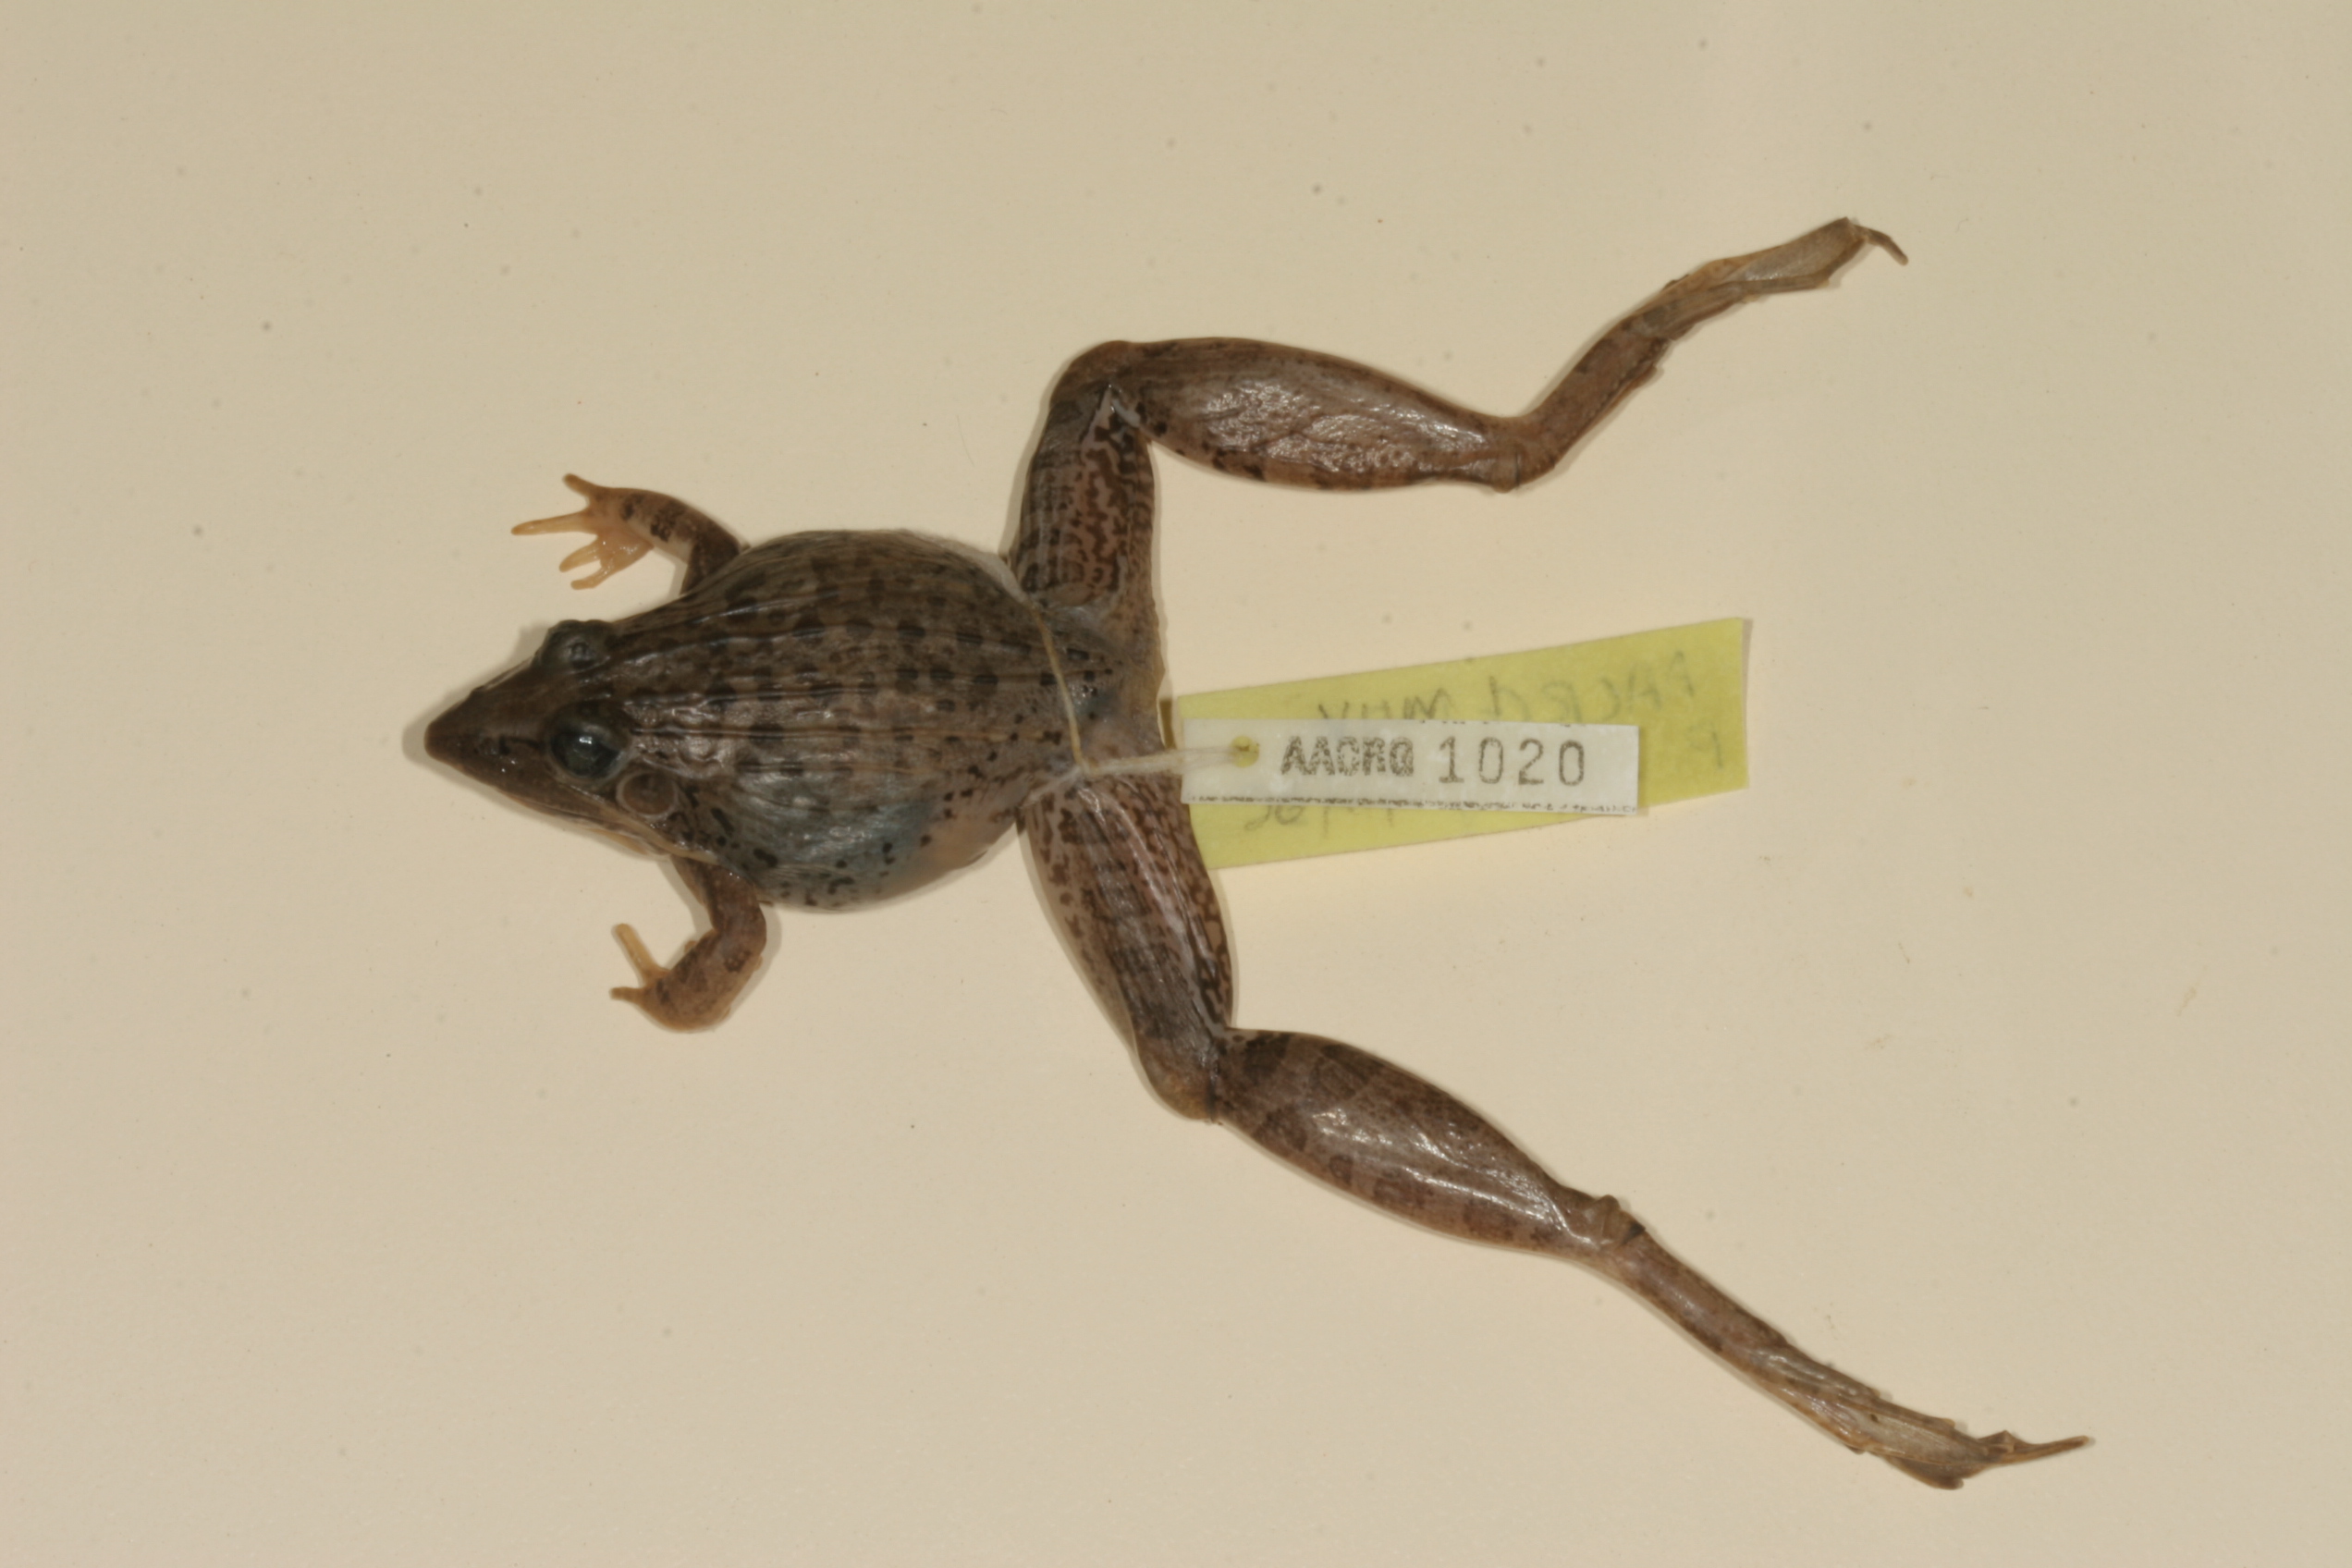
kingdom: Animalia
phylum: Chordata
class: Amphibia
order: Anura
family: Ptychadenidae
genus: Ptychadena
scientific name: Ptychadena oxyrhynchus
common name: Sharp-nosed ridged frog
